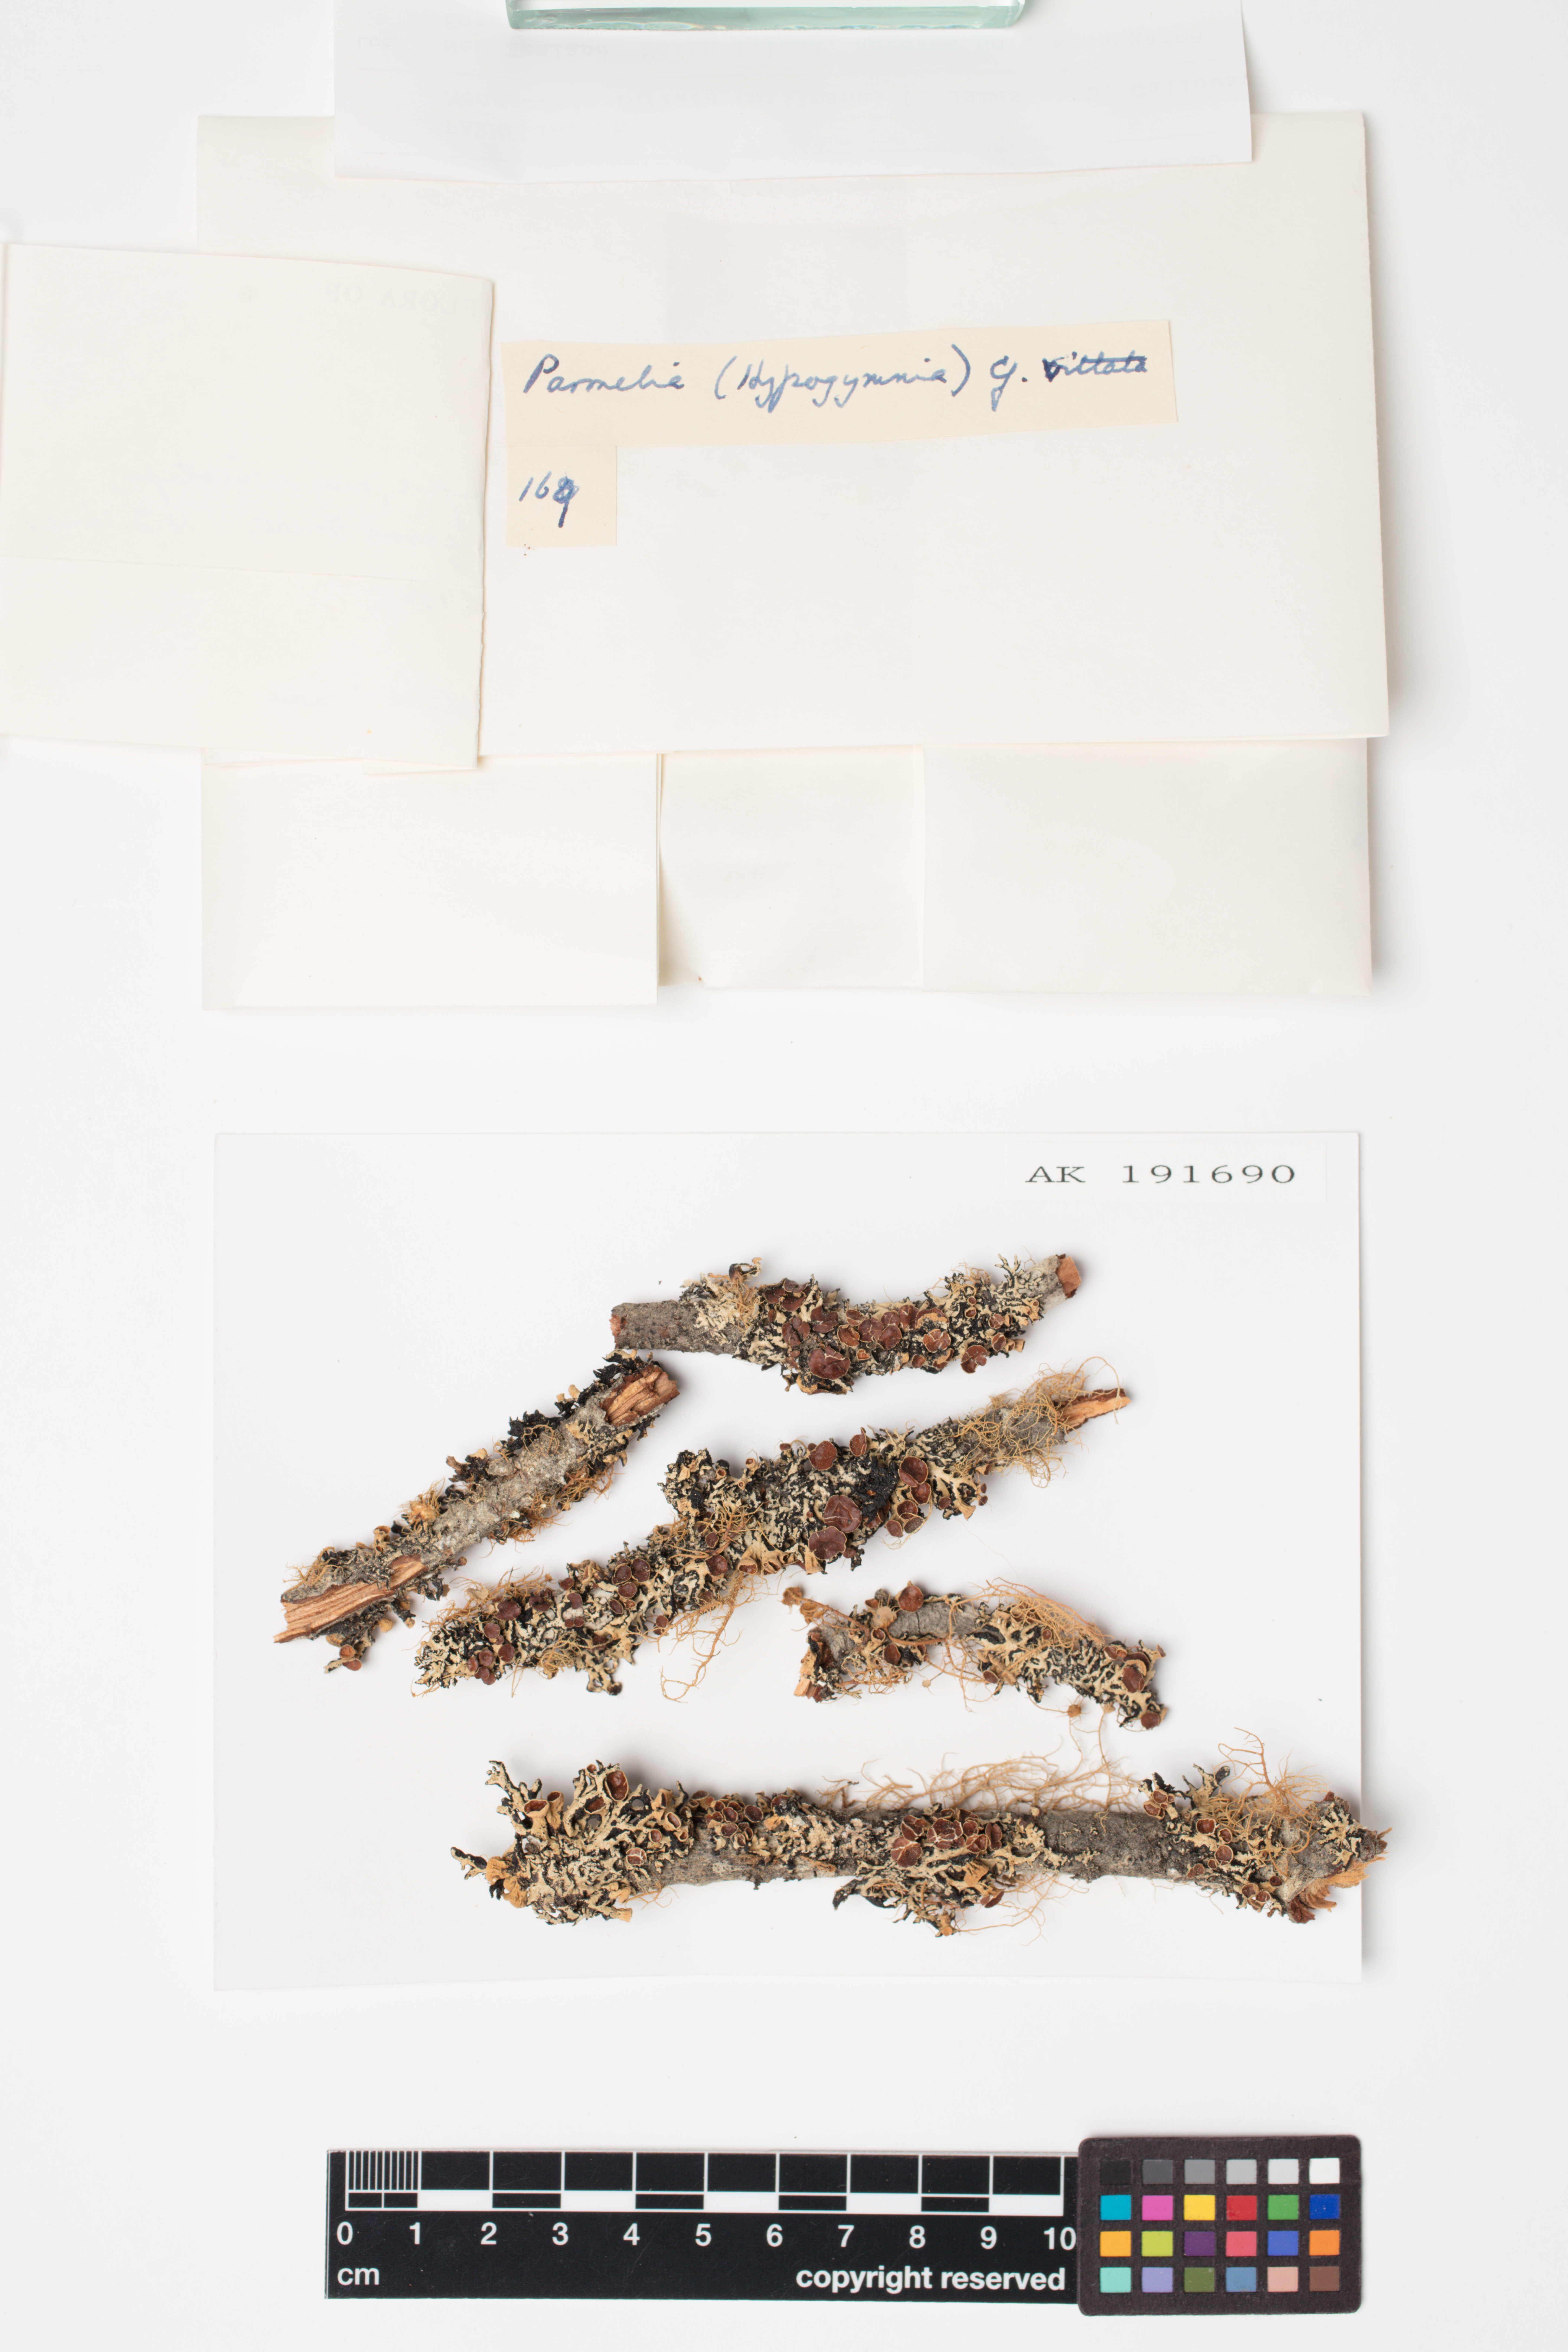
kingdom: Fungi
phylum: Ascomycota
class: Lecanoromycetes
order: Lecanorales
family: Parmeliaceae
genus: Menegazzia
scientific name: Menegazzia
